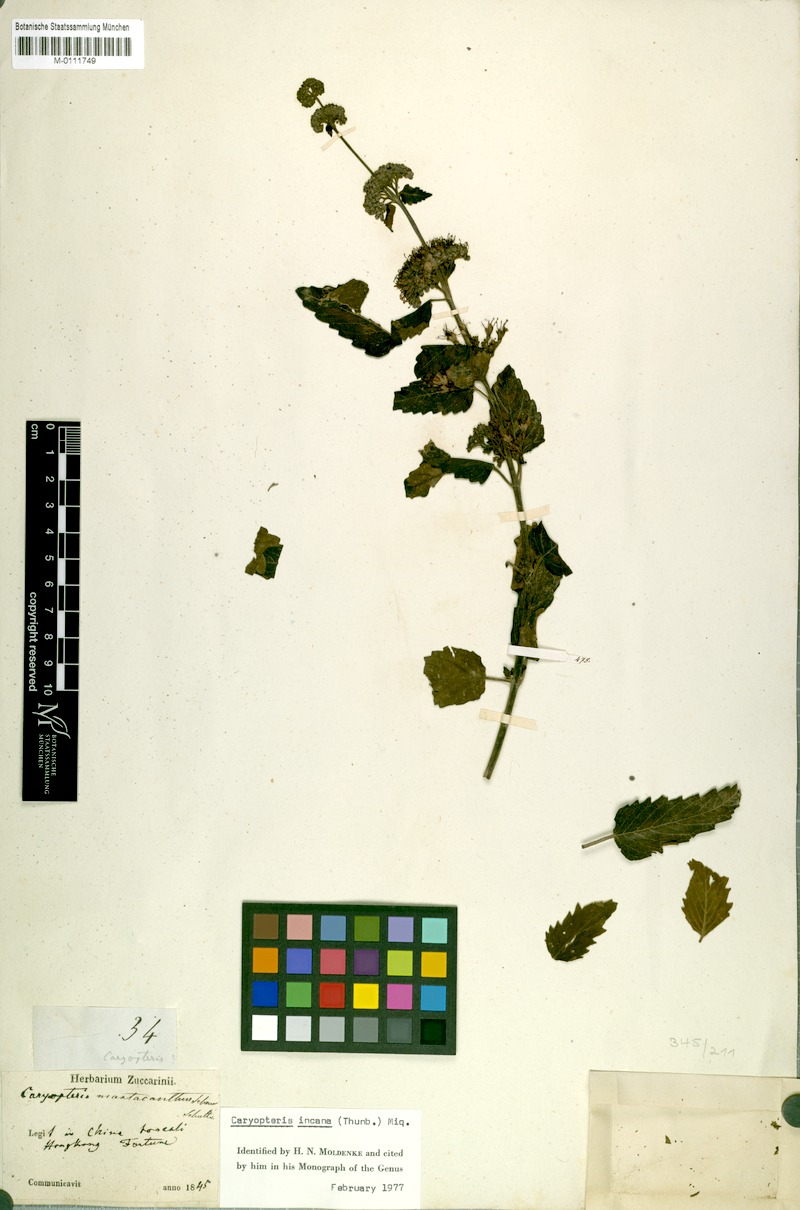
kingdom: Plantae
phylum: Tracheophyta
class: Magnoliopsida
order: Lamiales
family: Lamiaceae
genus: Caryopteris
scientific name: Caryopteris incana
